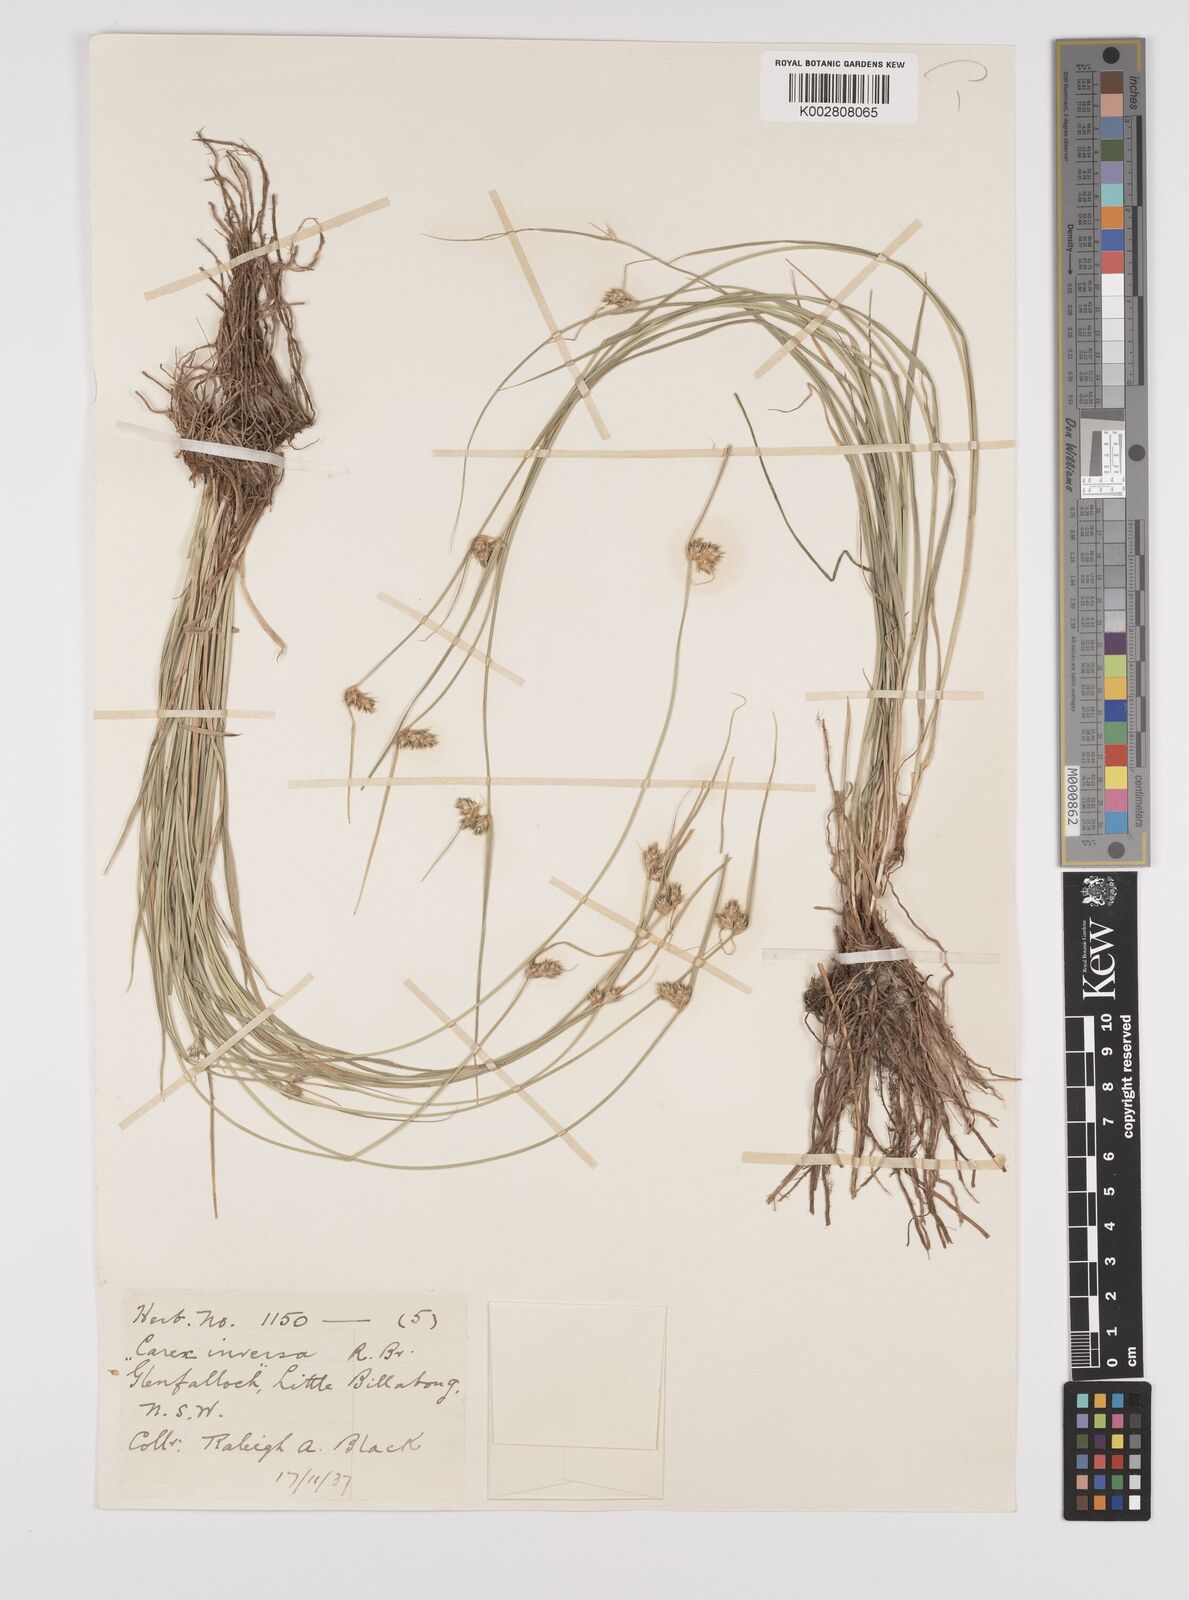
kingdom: Plantae
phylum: Tracheophyta
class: Liliopsida
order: Poales
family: Cyperaceae
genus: Carex
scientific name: Carex inversa
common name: Knob sedge
